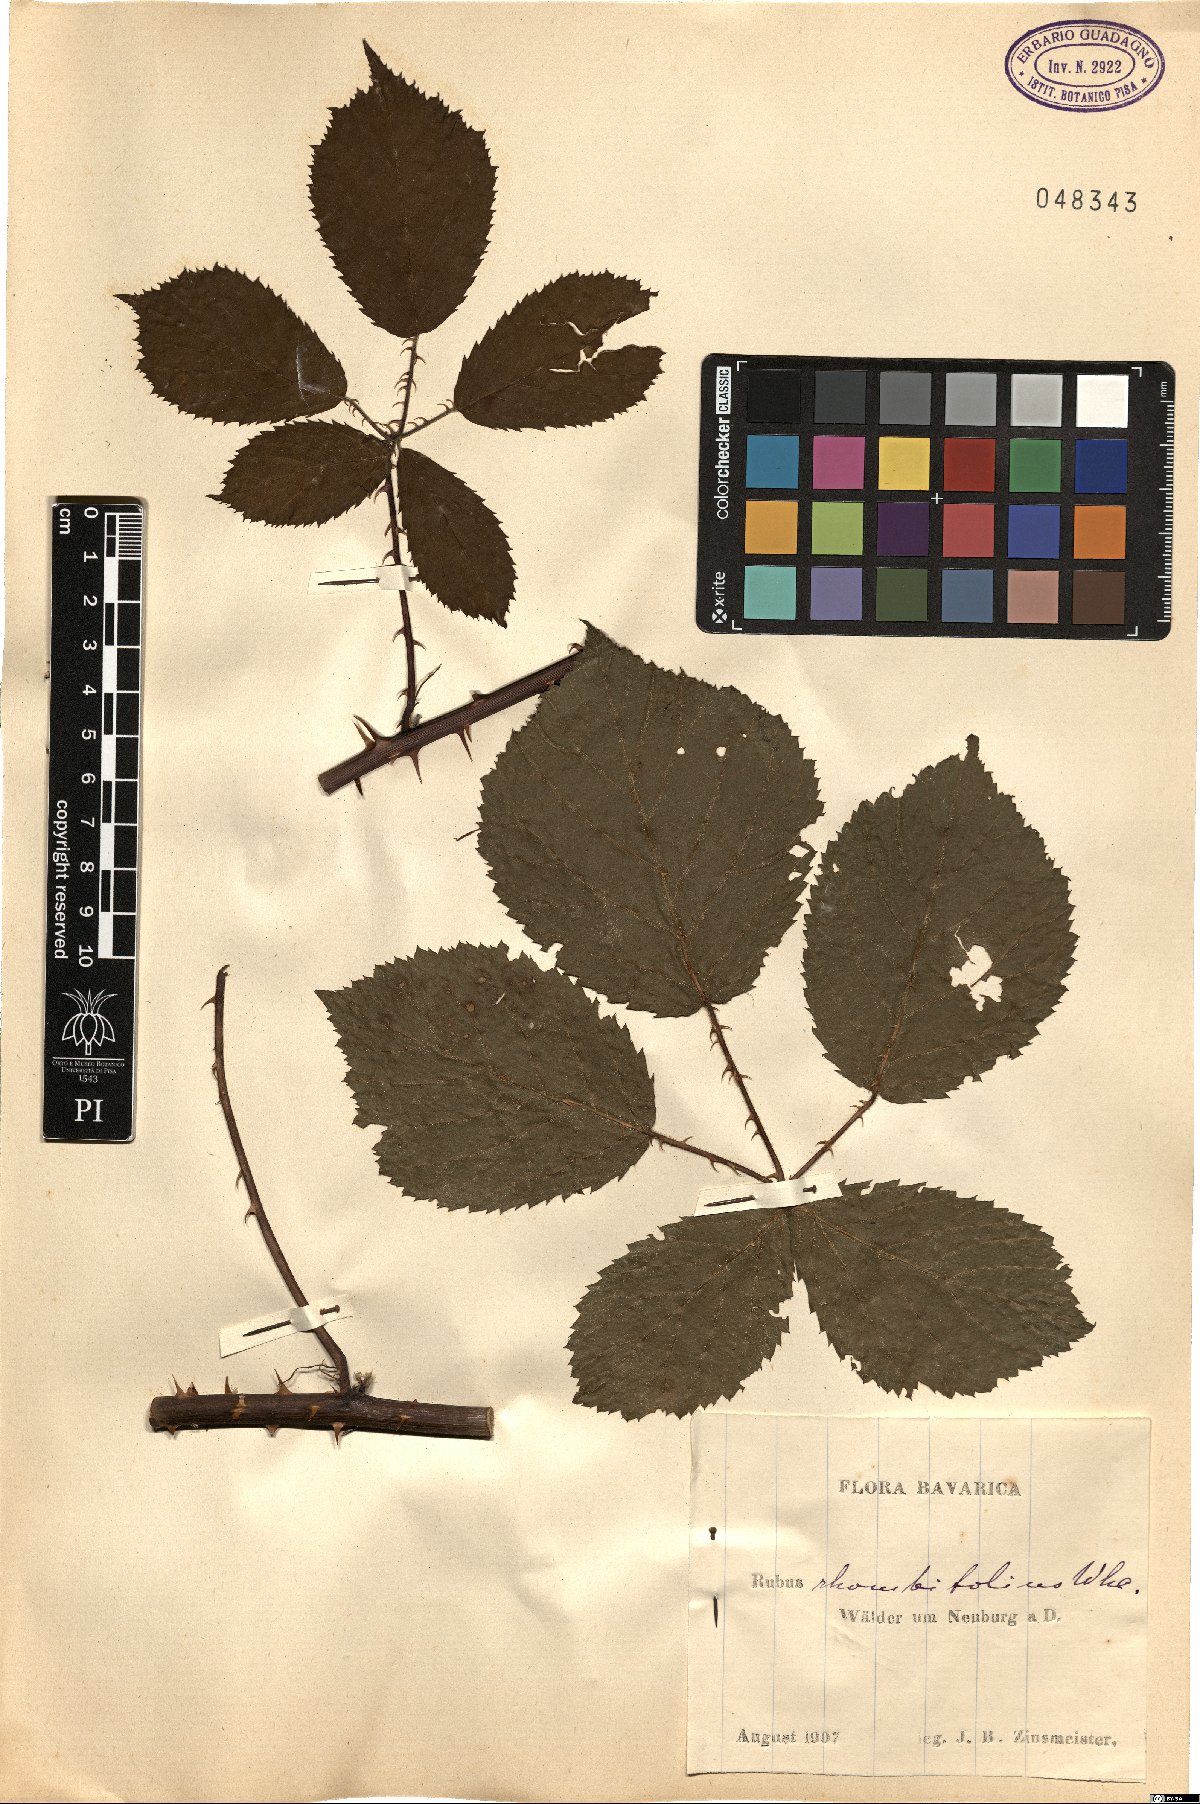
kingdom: Plantae
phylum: Tracheophyta
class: Magnoliopsida
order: Rosales
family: Rosaceae
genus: Rubus
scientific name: Rubus rhombifolius
